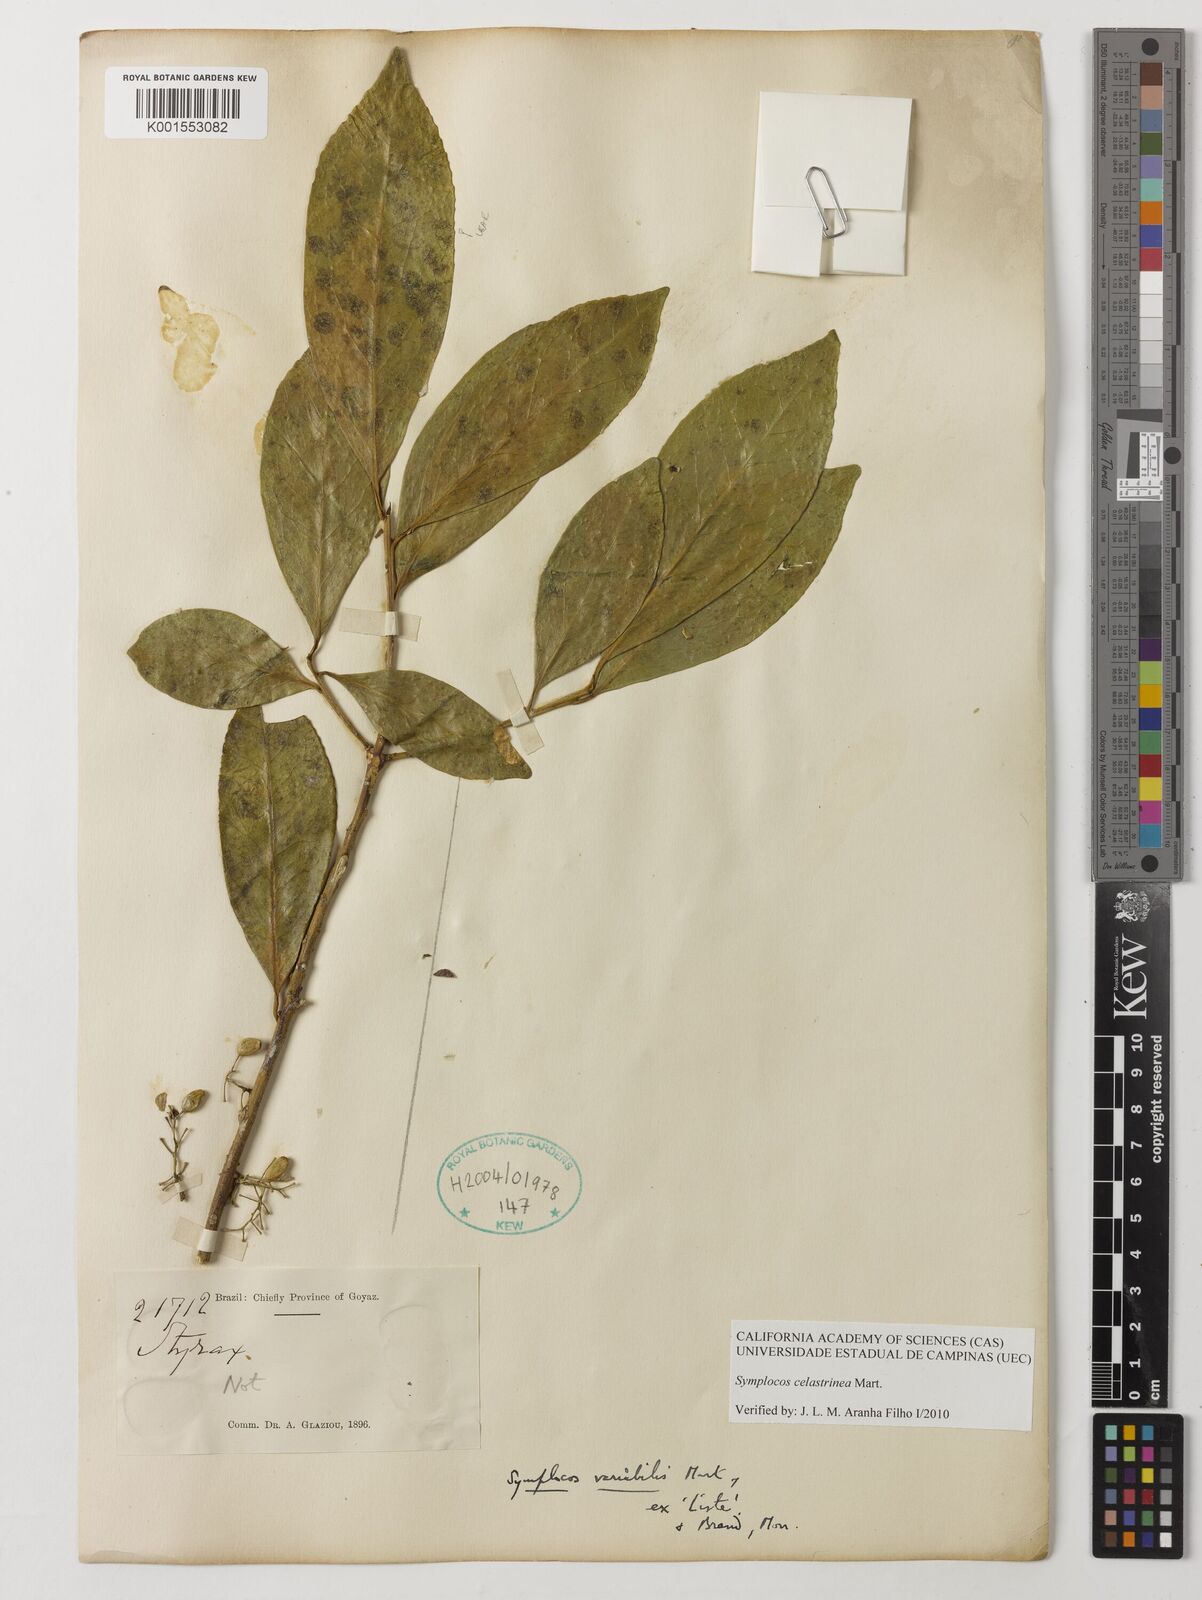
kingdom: Plantae
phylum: Tracheophyta
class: Magnoliopsida
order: Ericales
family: Symplocaceae
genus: Symplocos
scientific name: Symplocos celastrinea
